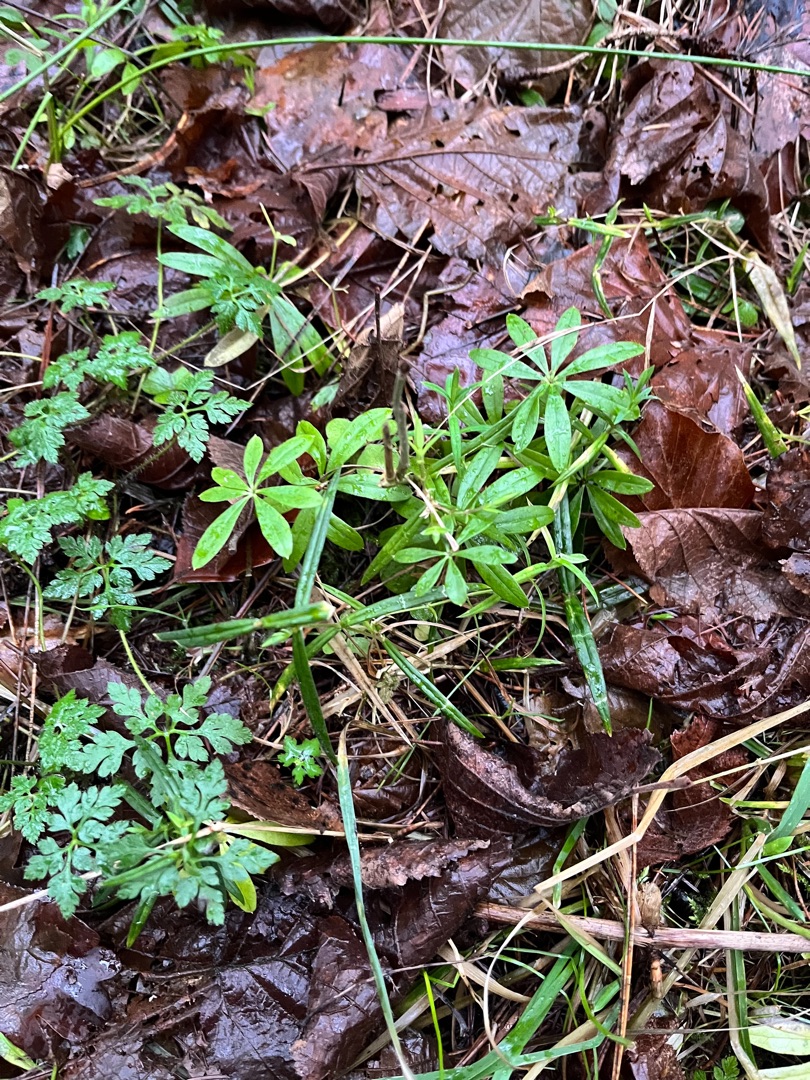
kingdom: Plantae
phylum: Tracheophyta
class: Magnoliopsida
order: Gentianales
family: Rubiaceae
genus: Galium
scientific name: Galium odoratum
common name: Skovmærke
